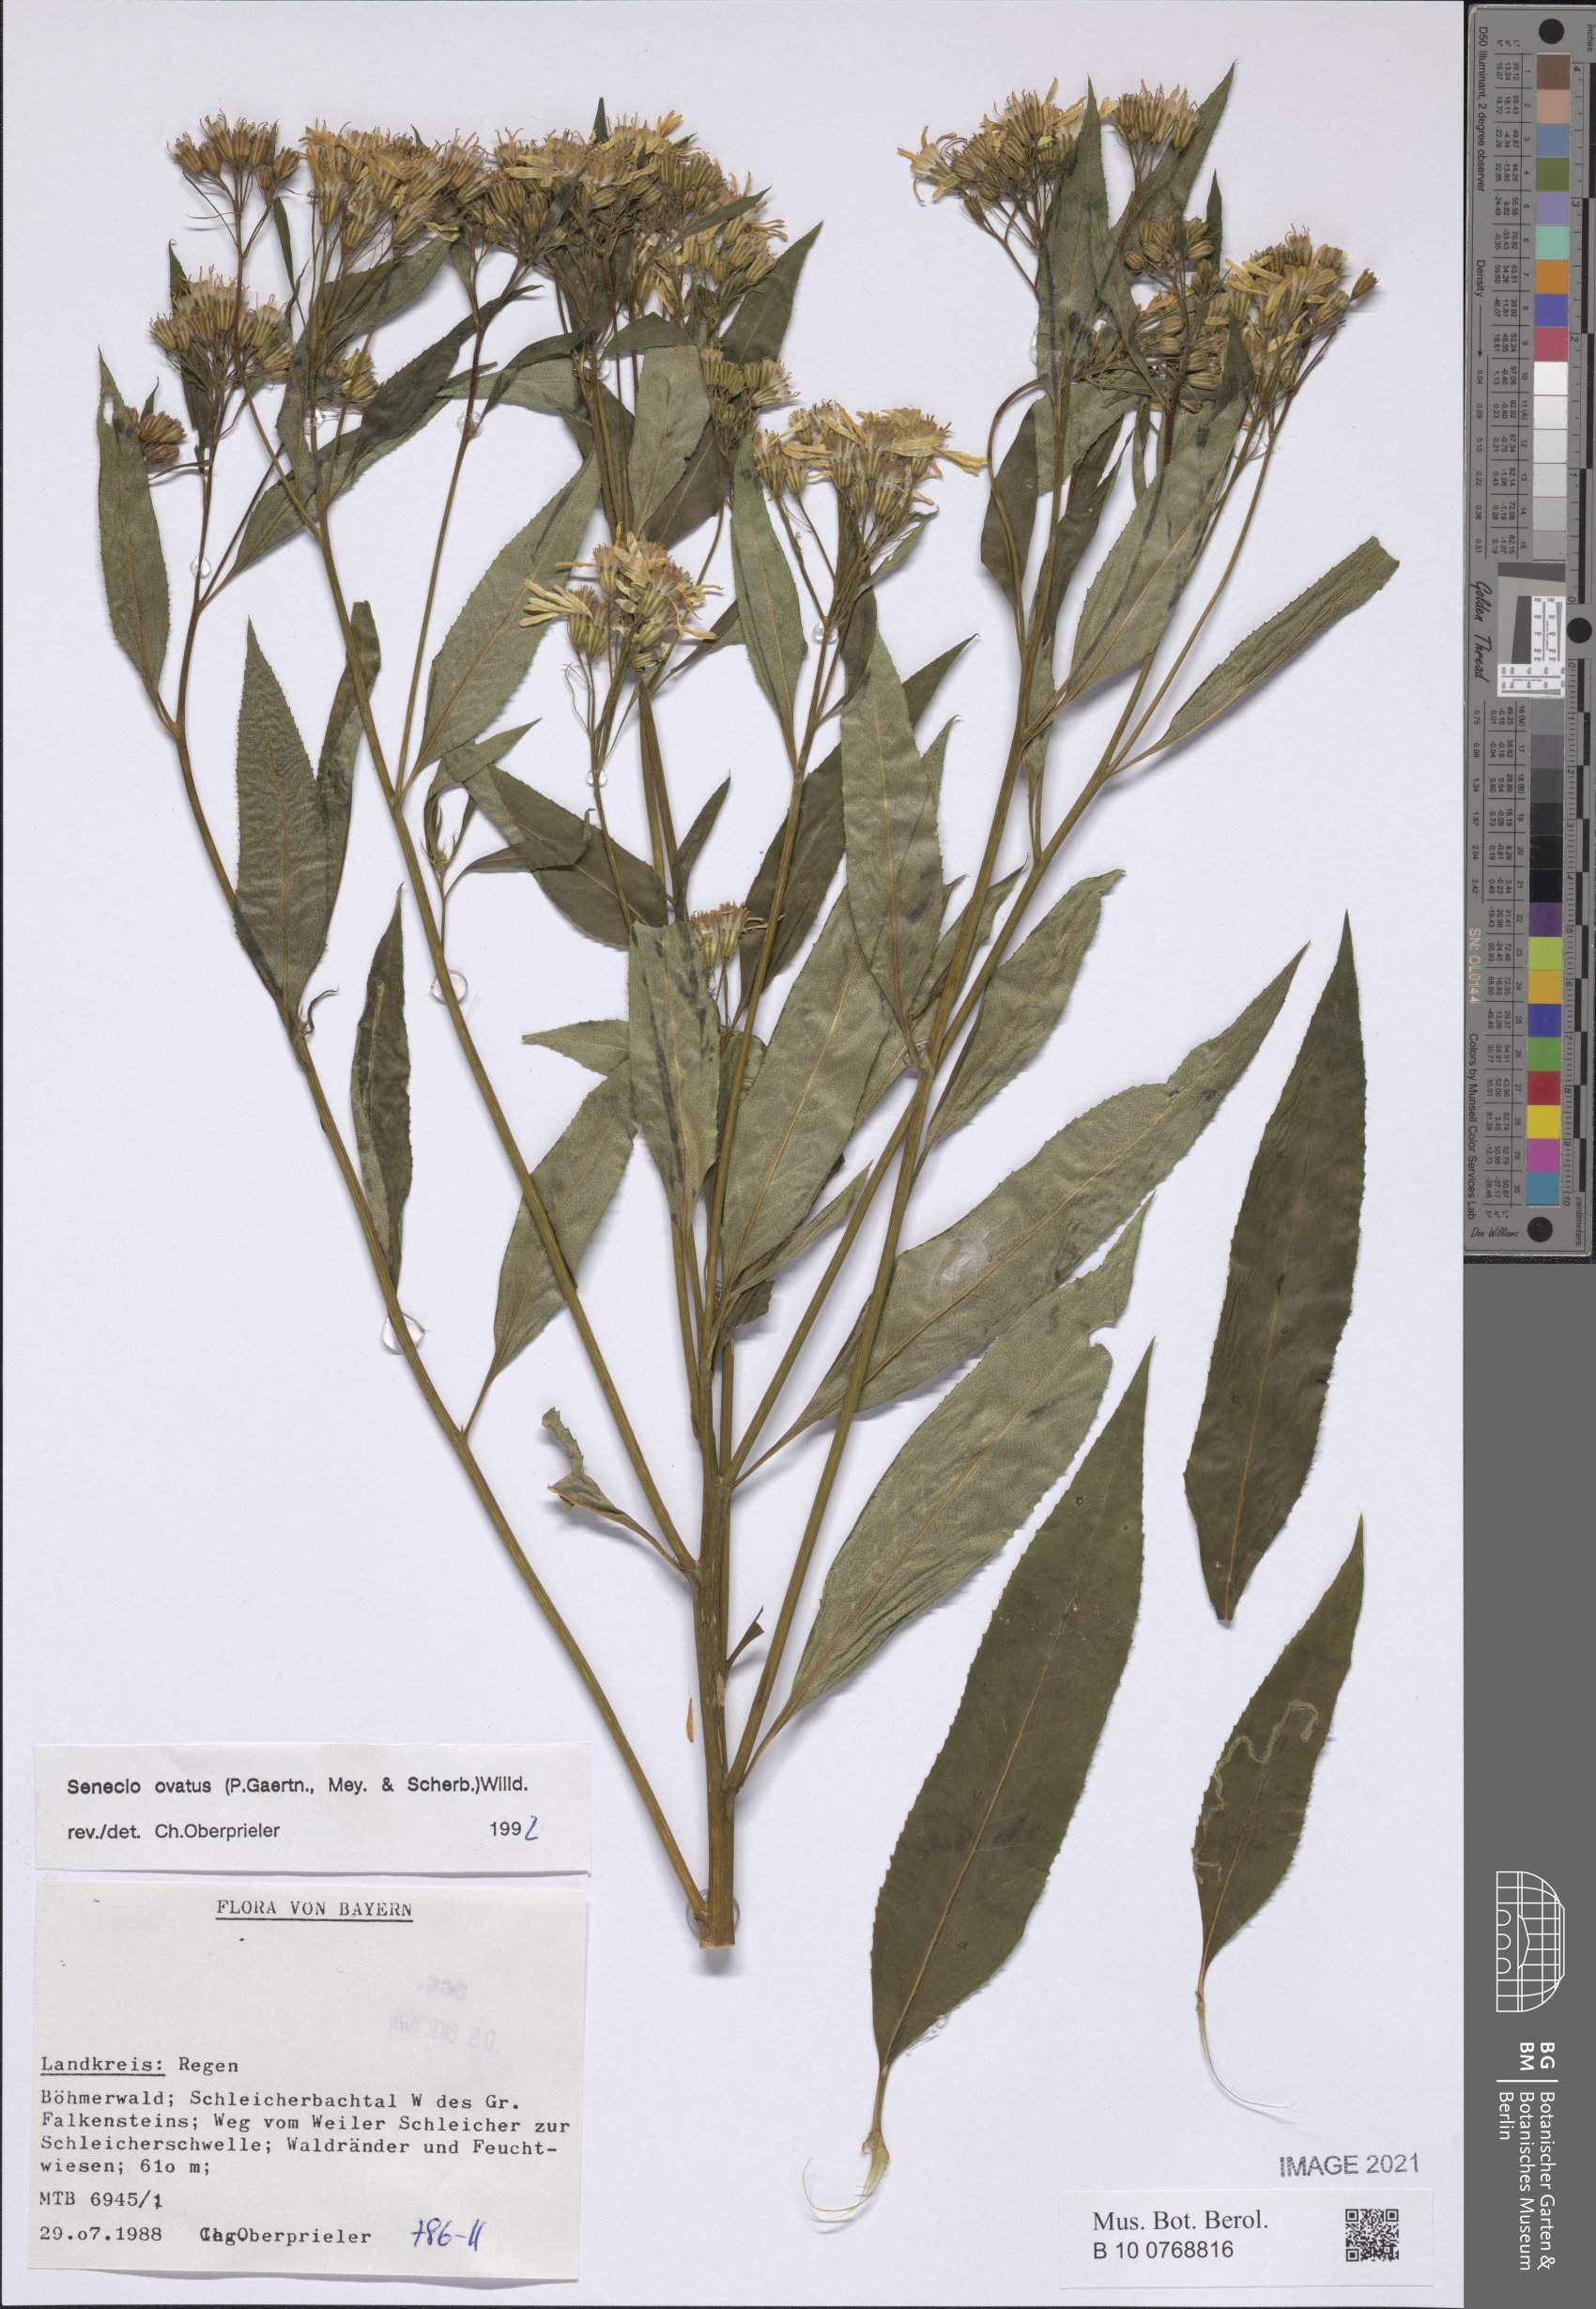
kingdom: Plantae
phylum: Tracheophyta
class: Magnoliopsida
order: Asterales
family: Asteraceae
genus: Senecio
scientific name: Senecio ovatus
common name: Wood ragwort
